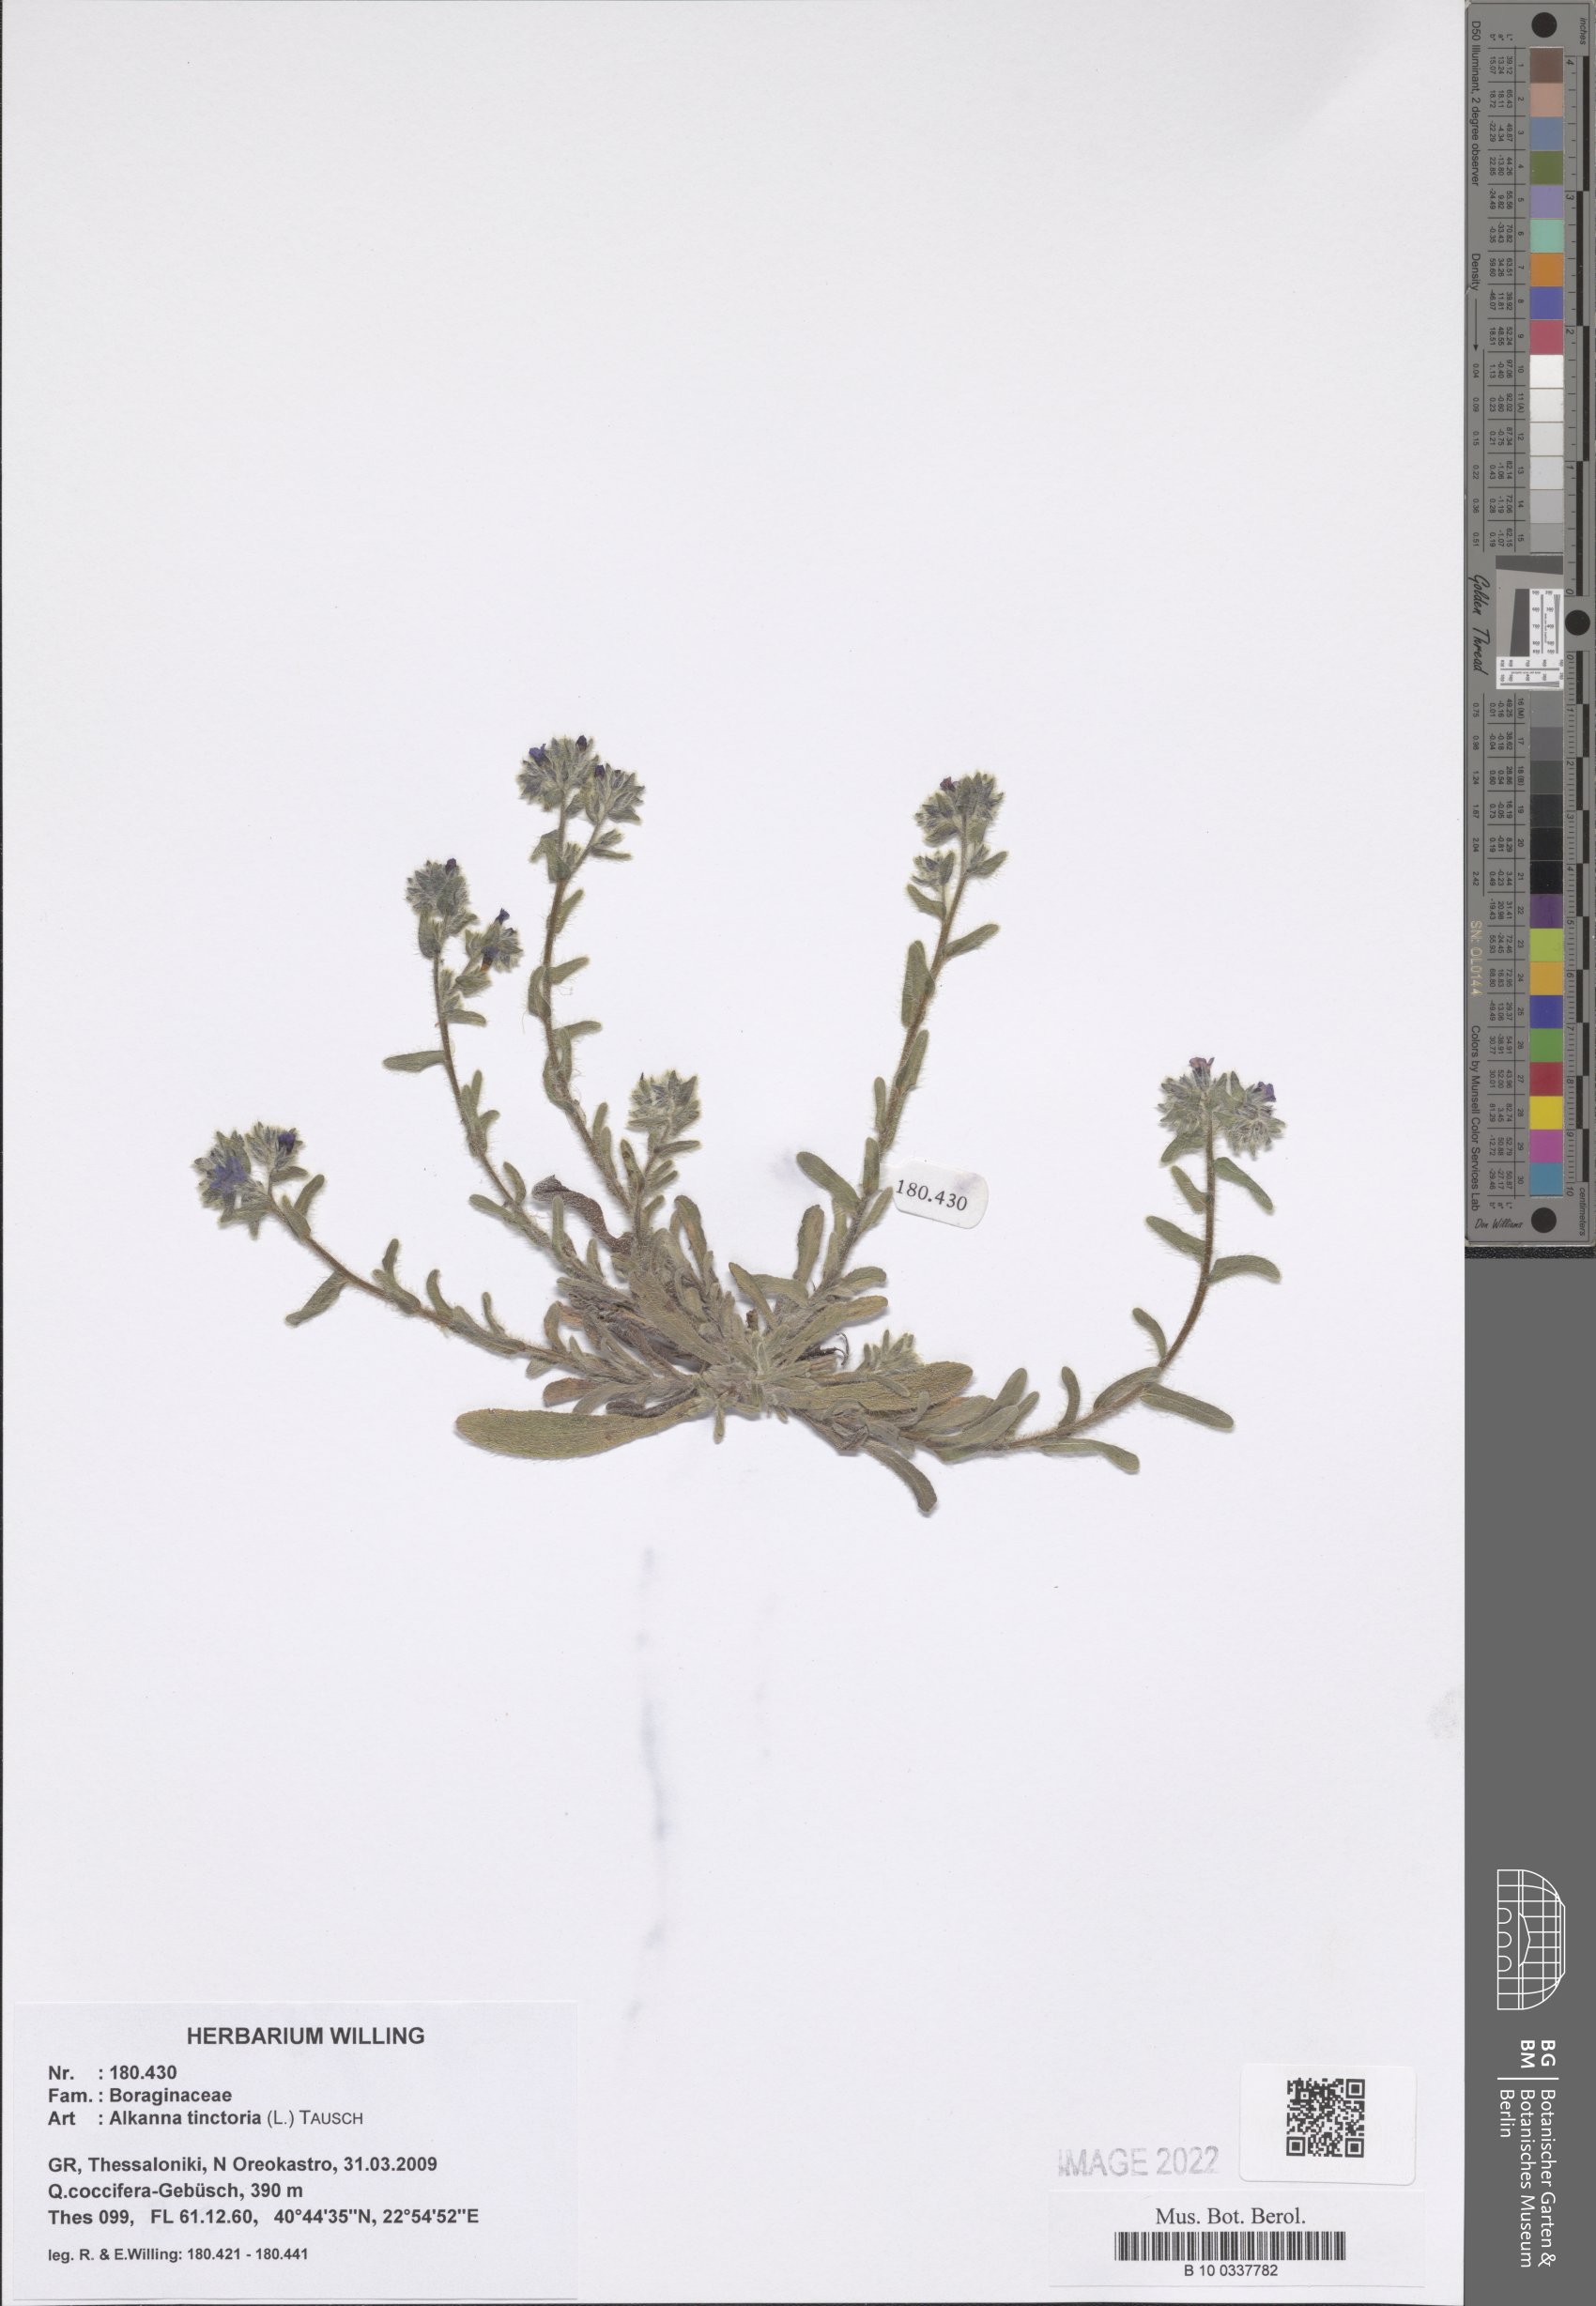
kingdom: Plantae
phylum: Tracheophyta
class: Magnoliopsida
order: Boraginales
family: Boraginaceae
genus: Alkanna
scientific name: Alkanna tinctoria
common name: Dyer's-alkanet
